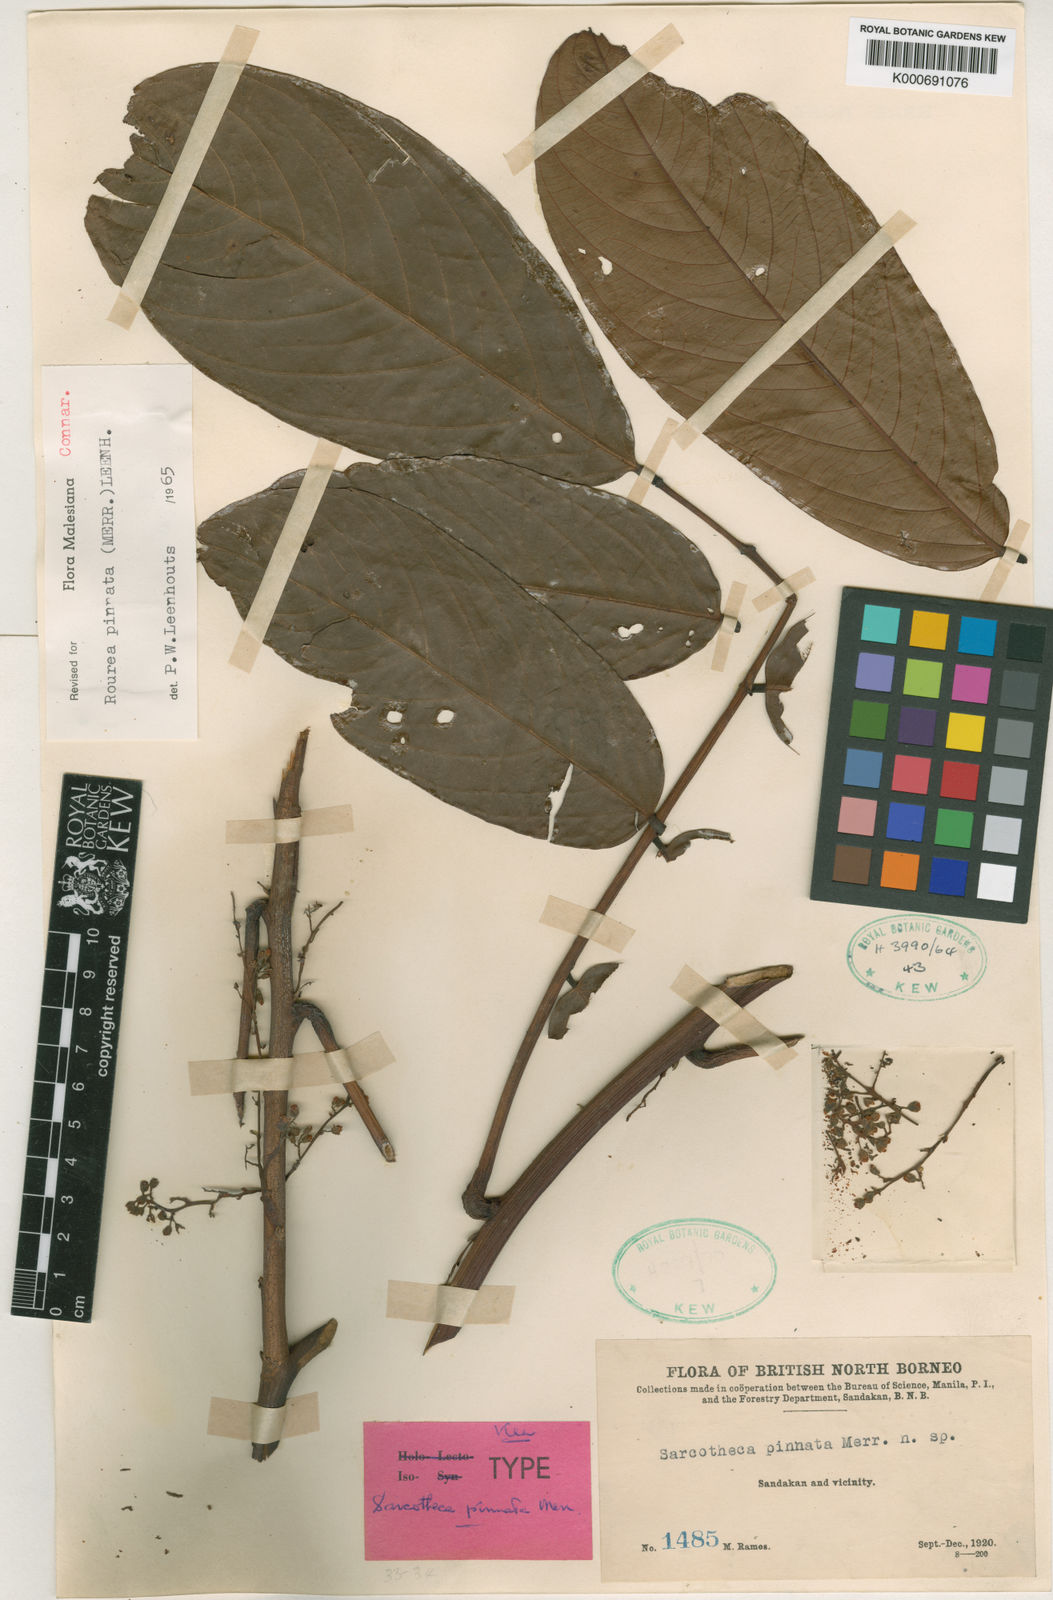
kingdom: Plantae
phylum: Tracheophyta
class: Magnoliopsida
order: Oxalidales
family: Connaraceae
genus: Rourea
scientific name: Rourea pinnata
